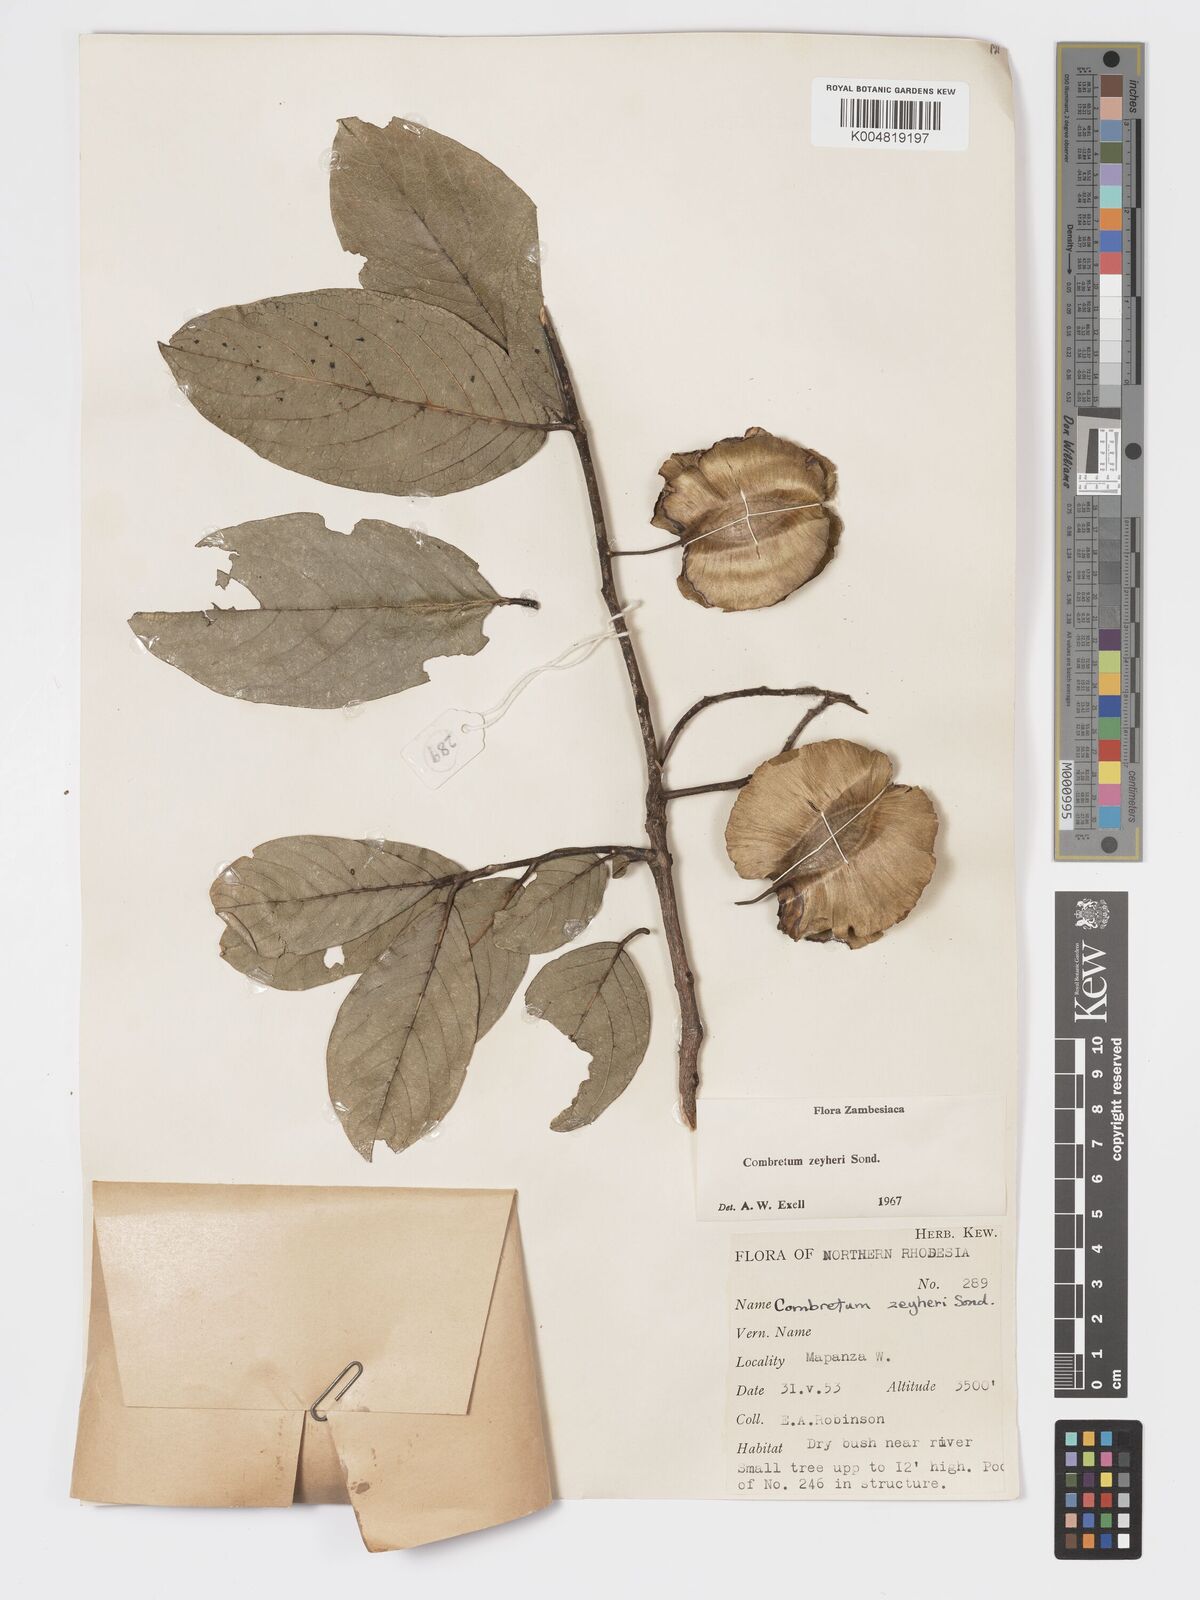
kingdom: Plantae
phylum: Tracheophyta
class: Magnoliopsida
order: Myrtales
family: Combretaceae
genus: Combretum
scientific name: Combretum zeyheri
